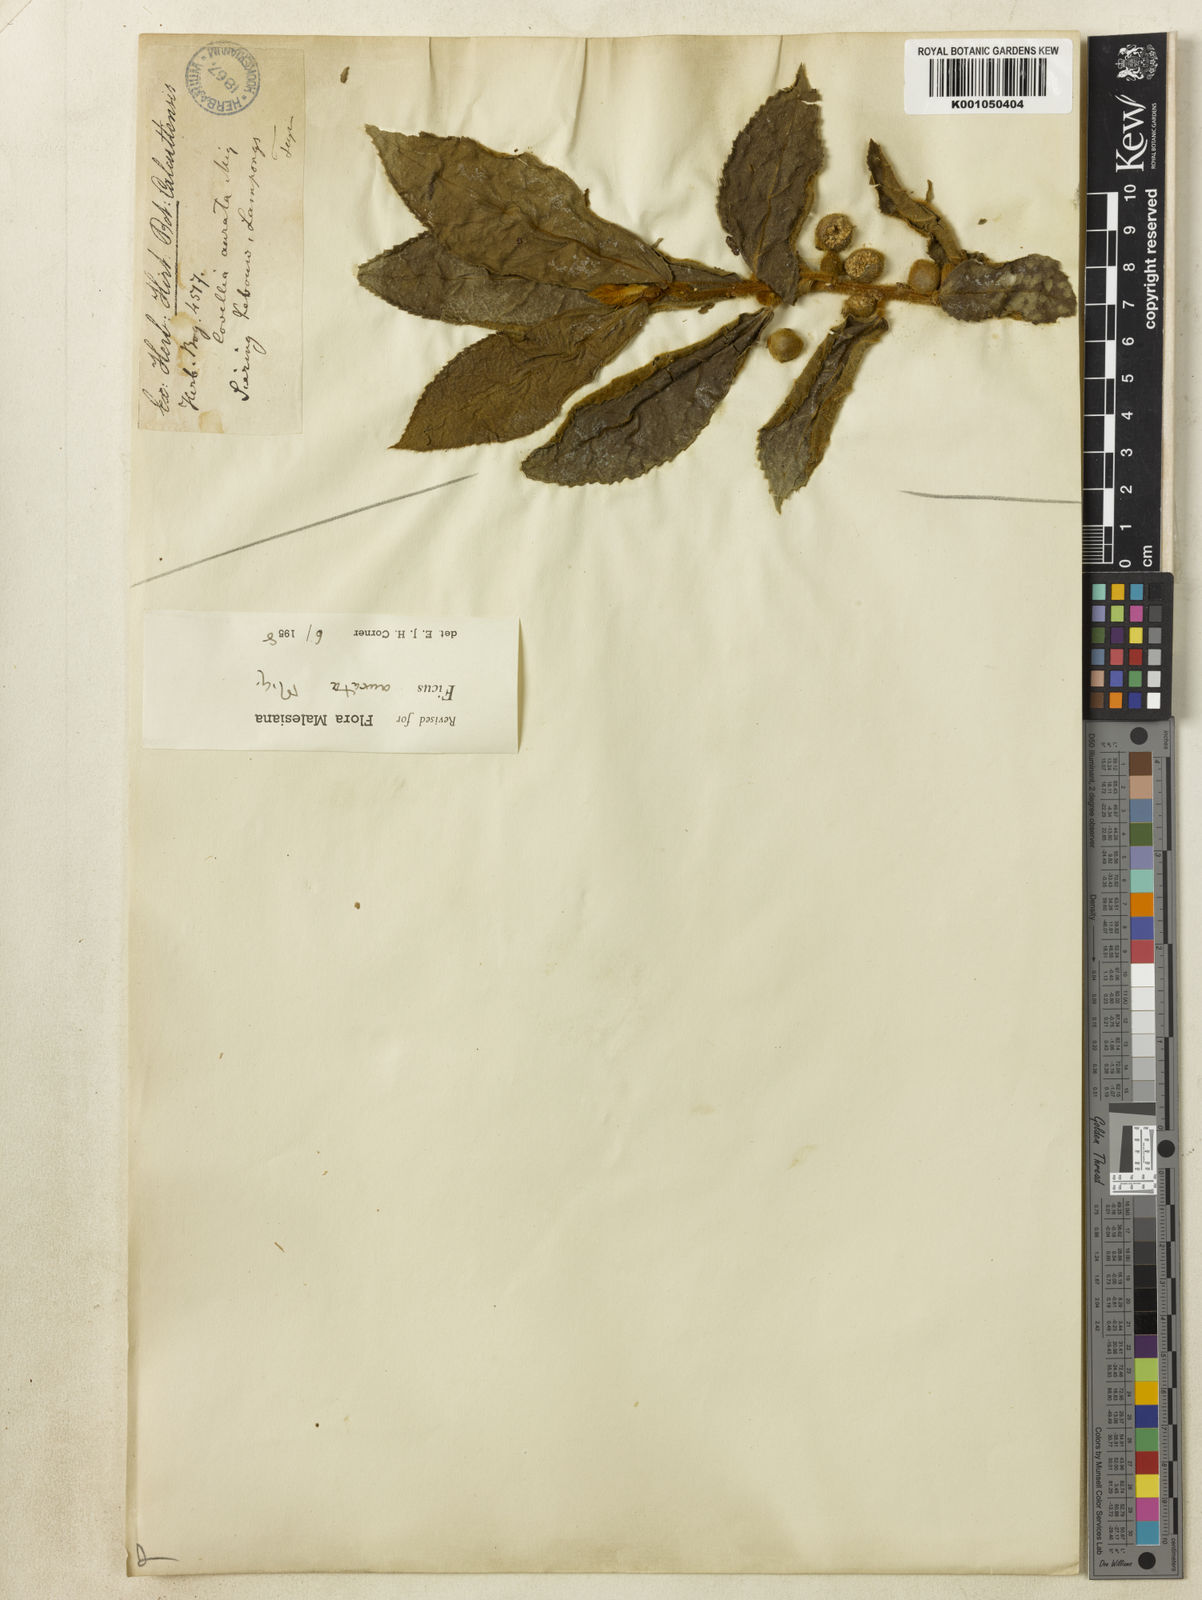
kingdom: Plantae
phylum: Tracheophyta
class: Magnoliopsida
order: Rosales
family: Moraceae
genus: Ficus
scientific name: Ficus aurata
